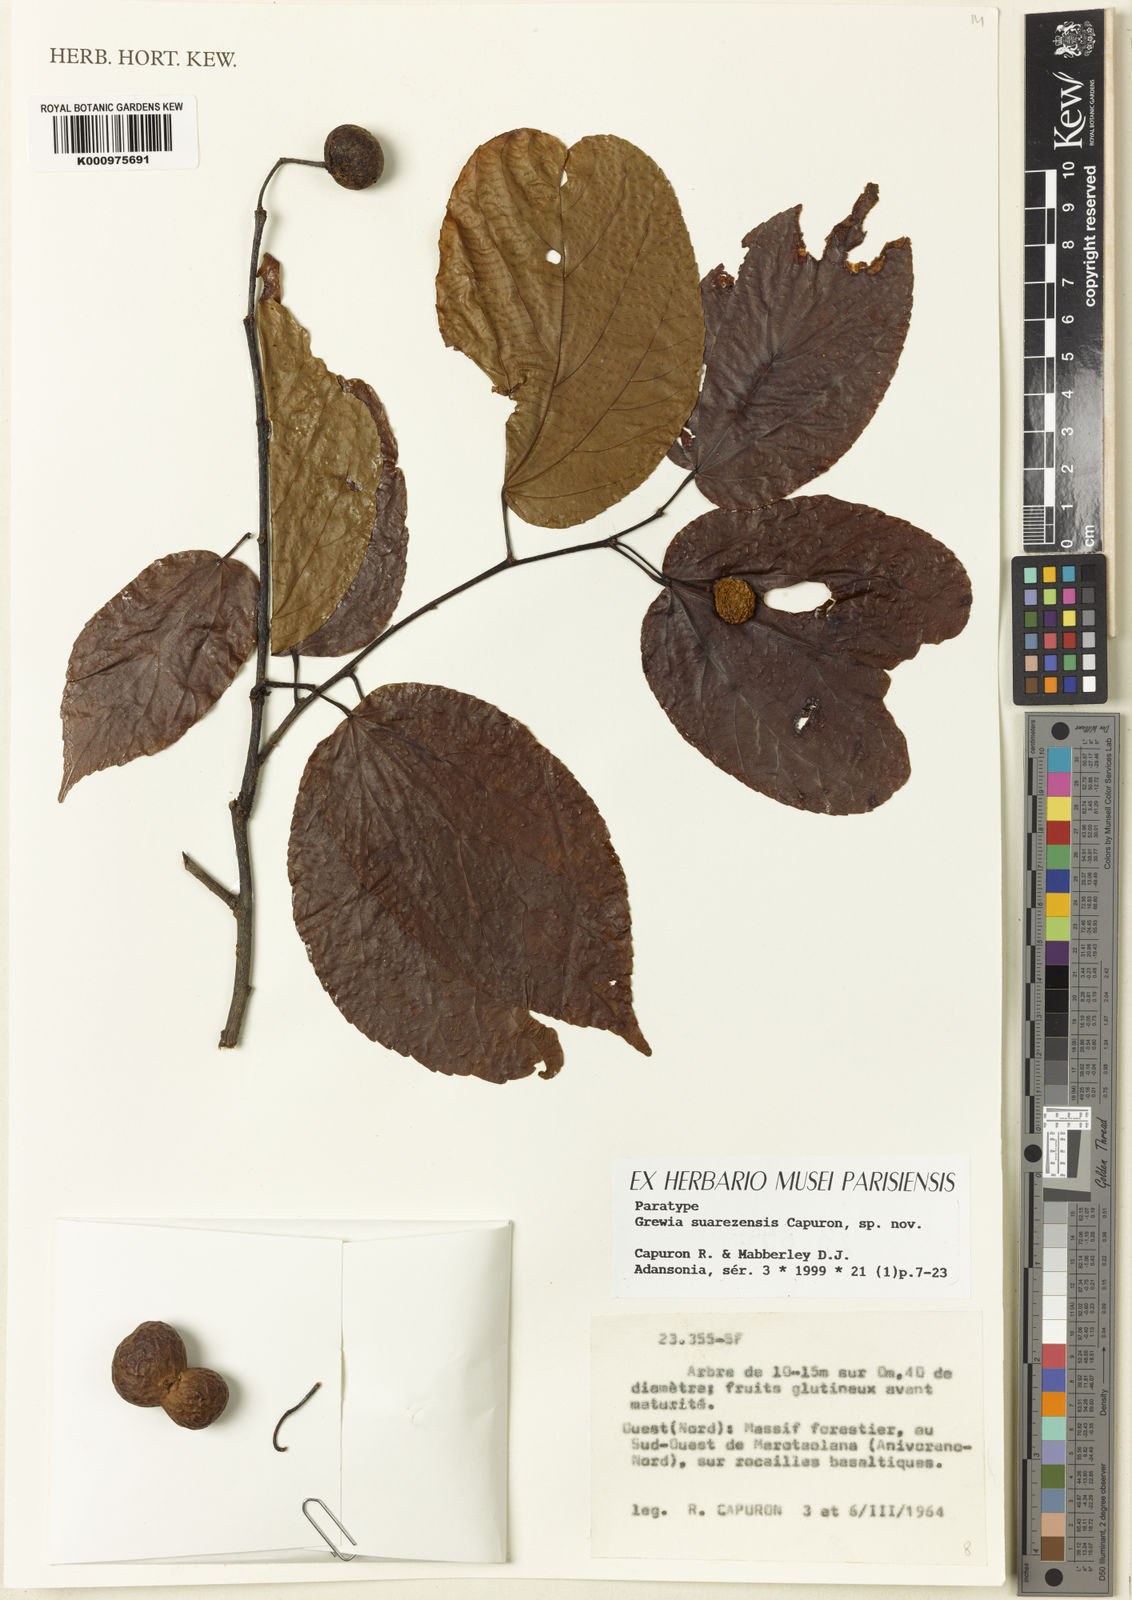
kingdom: Plantae
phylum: Tracheophyta
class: Magnoliopsida
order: Malvales
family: Malvaceae
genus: Grewia
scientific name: Grewia suarezensis
